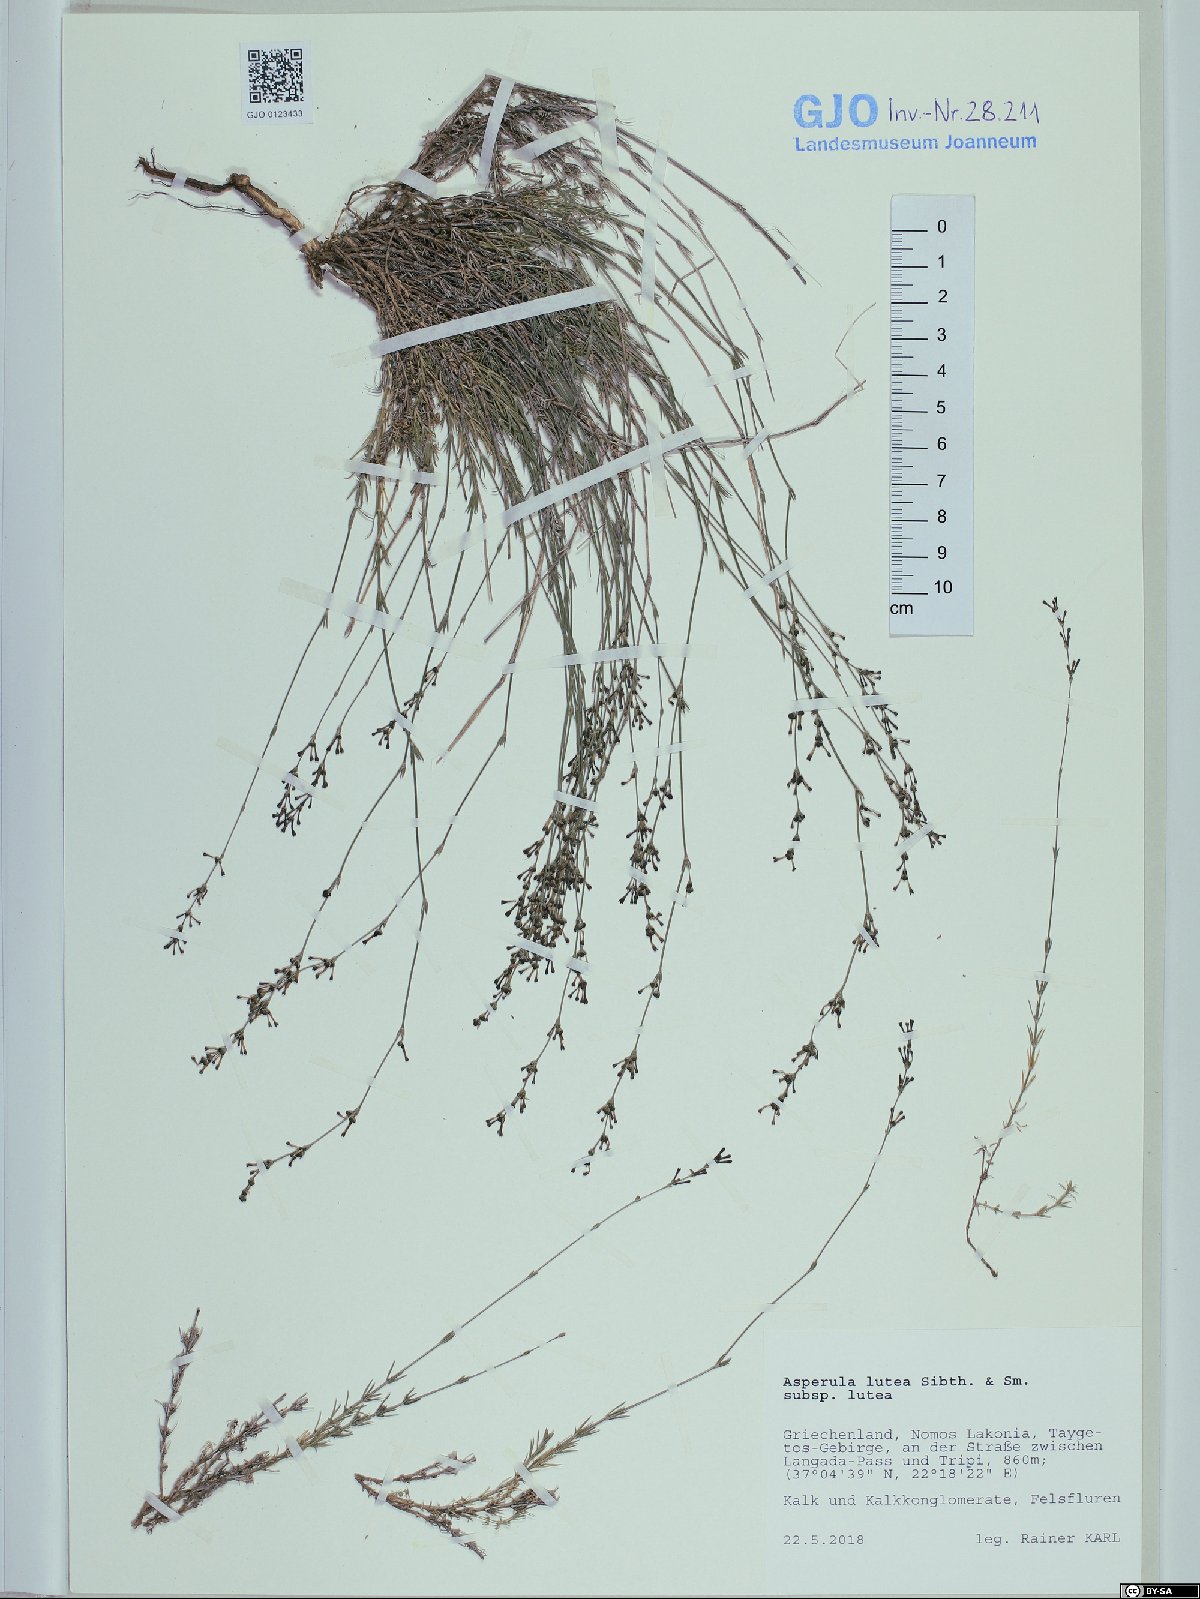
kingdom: Plantae
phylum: Tracheophyta
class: Magnoliopsida
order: Gentianales
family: Rubiaceae
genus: Cynanchica
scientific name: Cynanchica lutea
